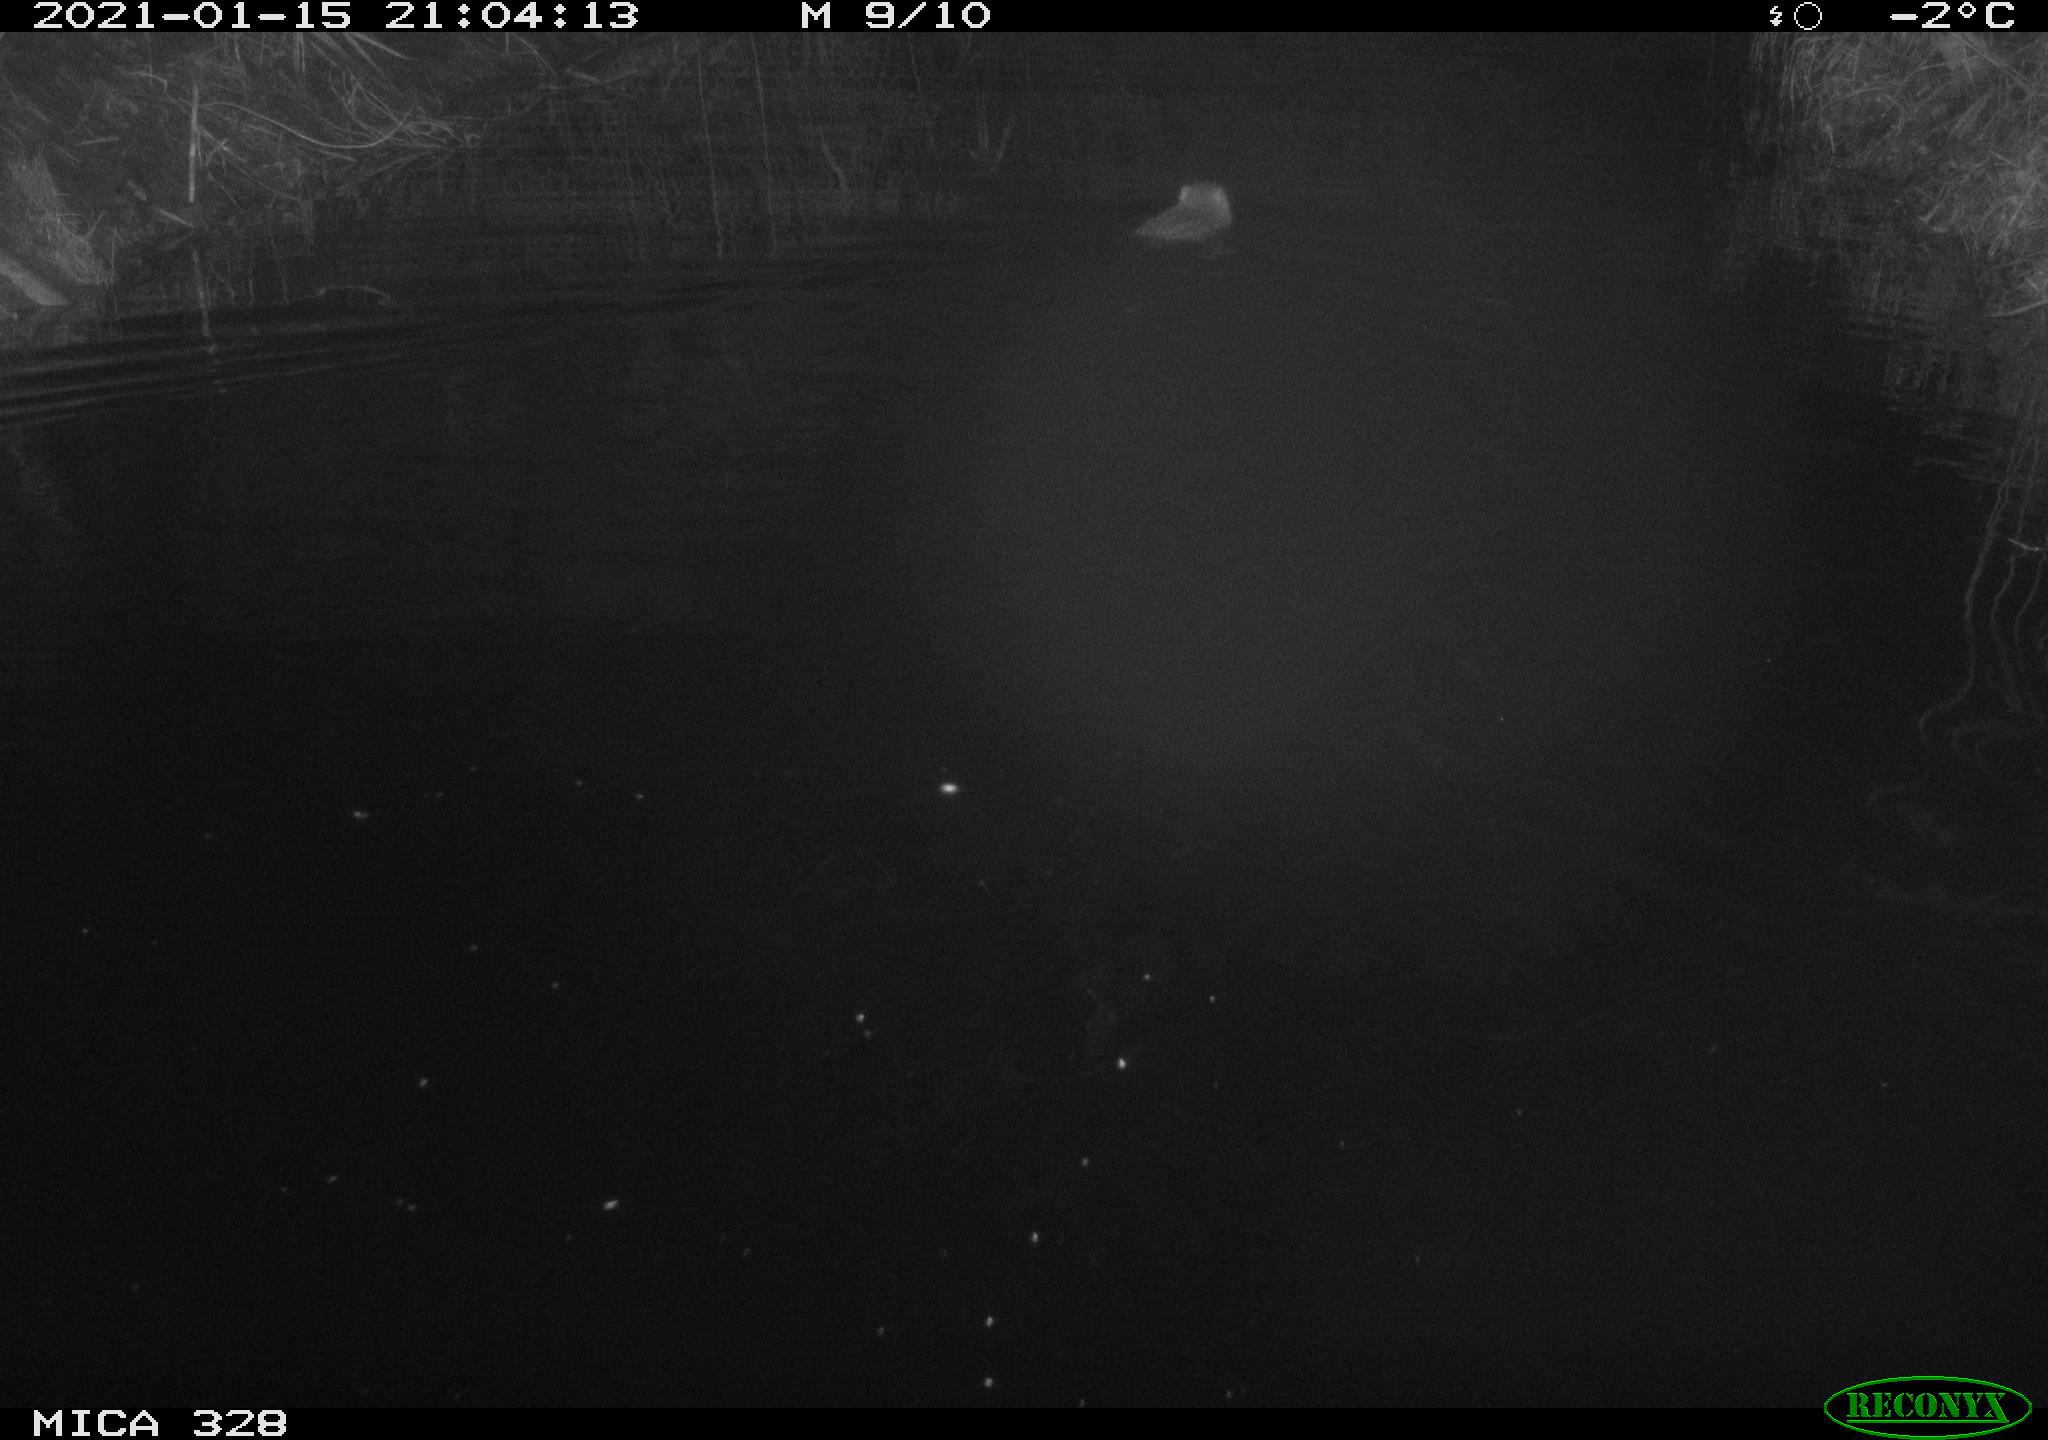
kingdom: Animalia
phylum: Chordata
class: Mammalia
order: Rodentia
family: Myocastoridae
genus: Myocastor
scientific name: Myocastor coypus
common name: Coypu
